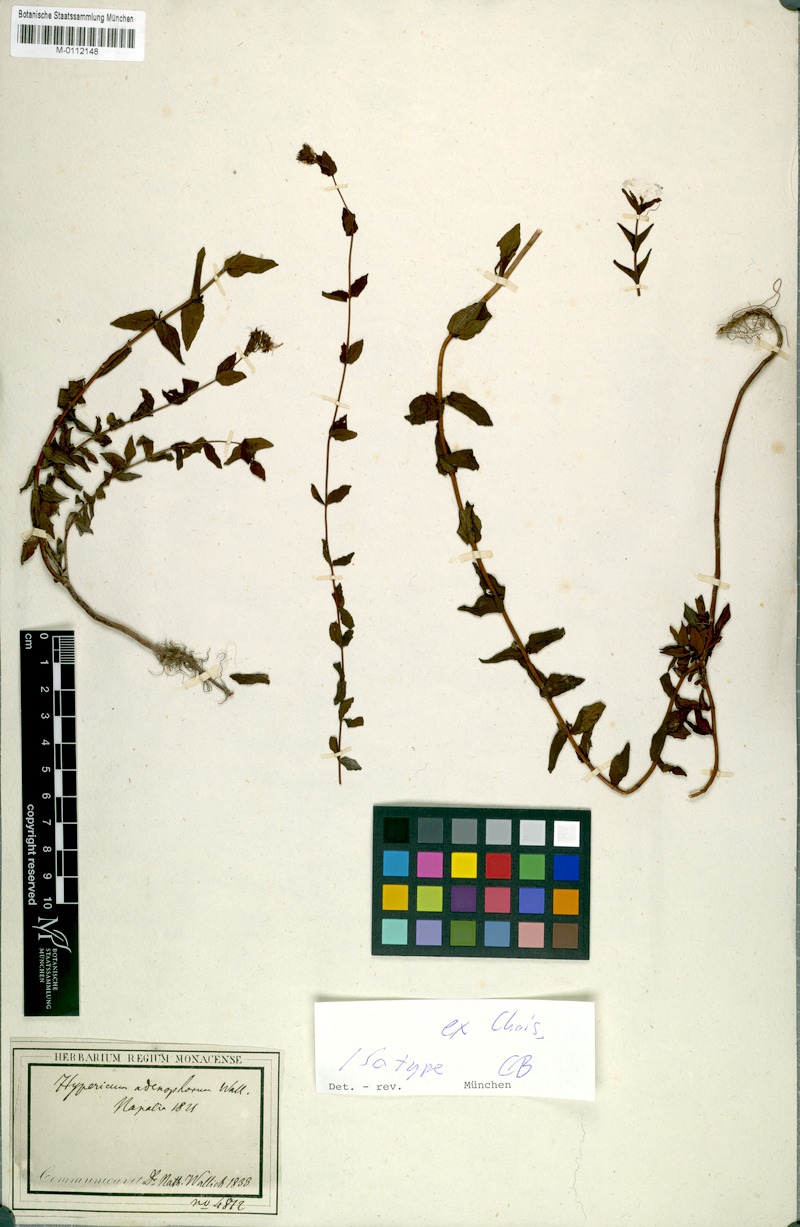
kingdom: Plantae
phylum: Tracheophyta
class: Magnoliopsida
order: Malpighiales
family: Hypericaceae
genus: Hypericum
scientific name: Hypericum elodeoides
